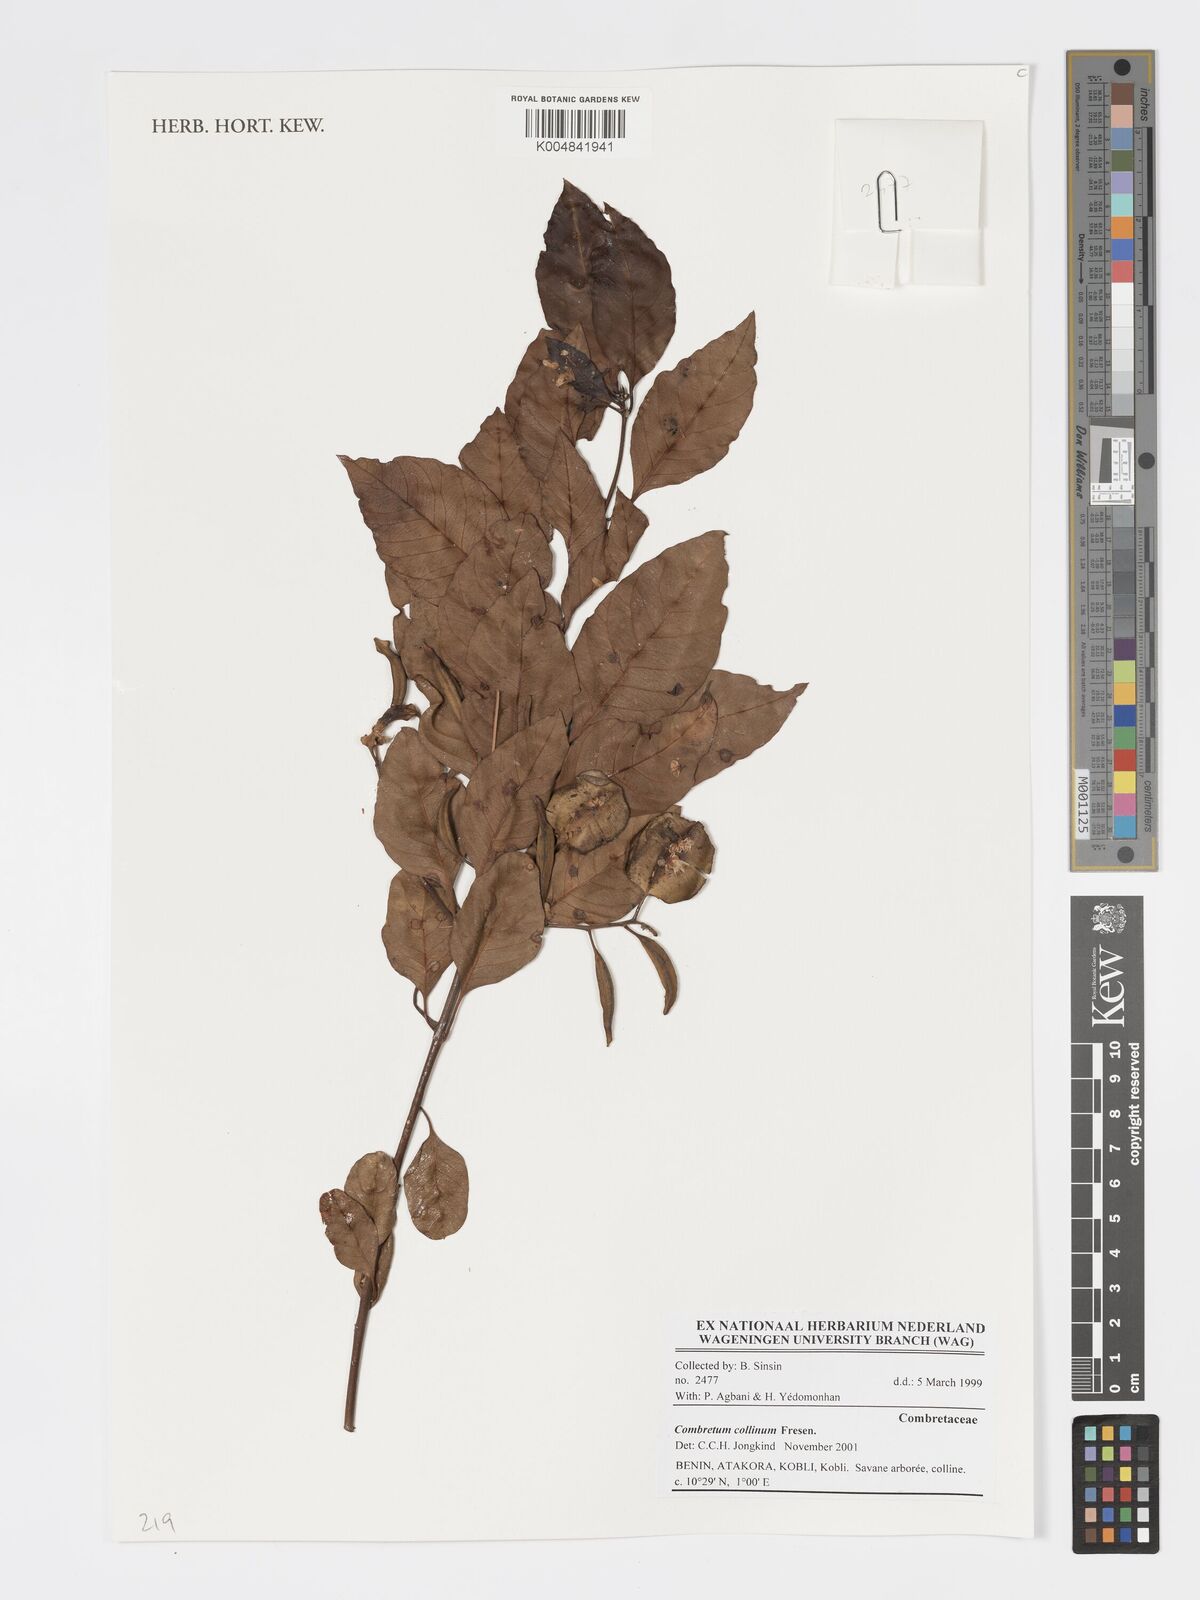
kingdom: Plantae
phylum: Tracheophyta
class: Magnoliopsida
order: Myrtales
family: Combretaceae
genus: Combretum
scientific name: Combretum collinum
